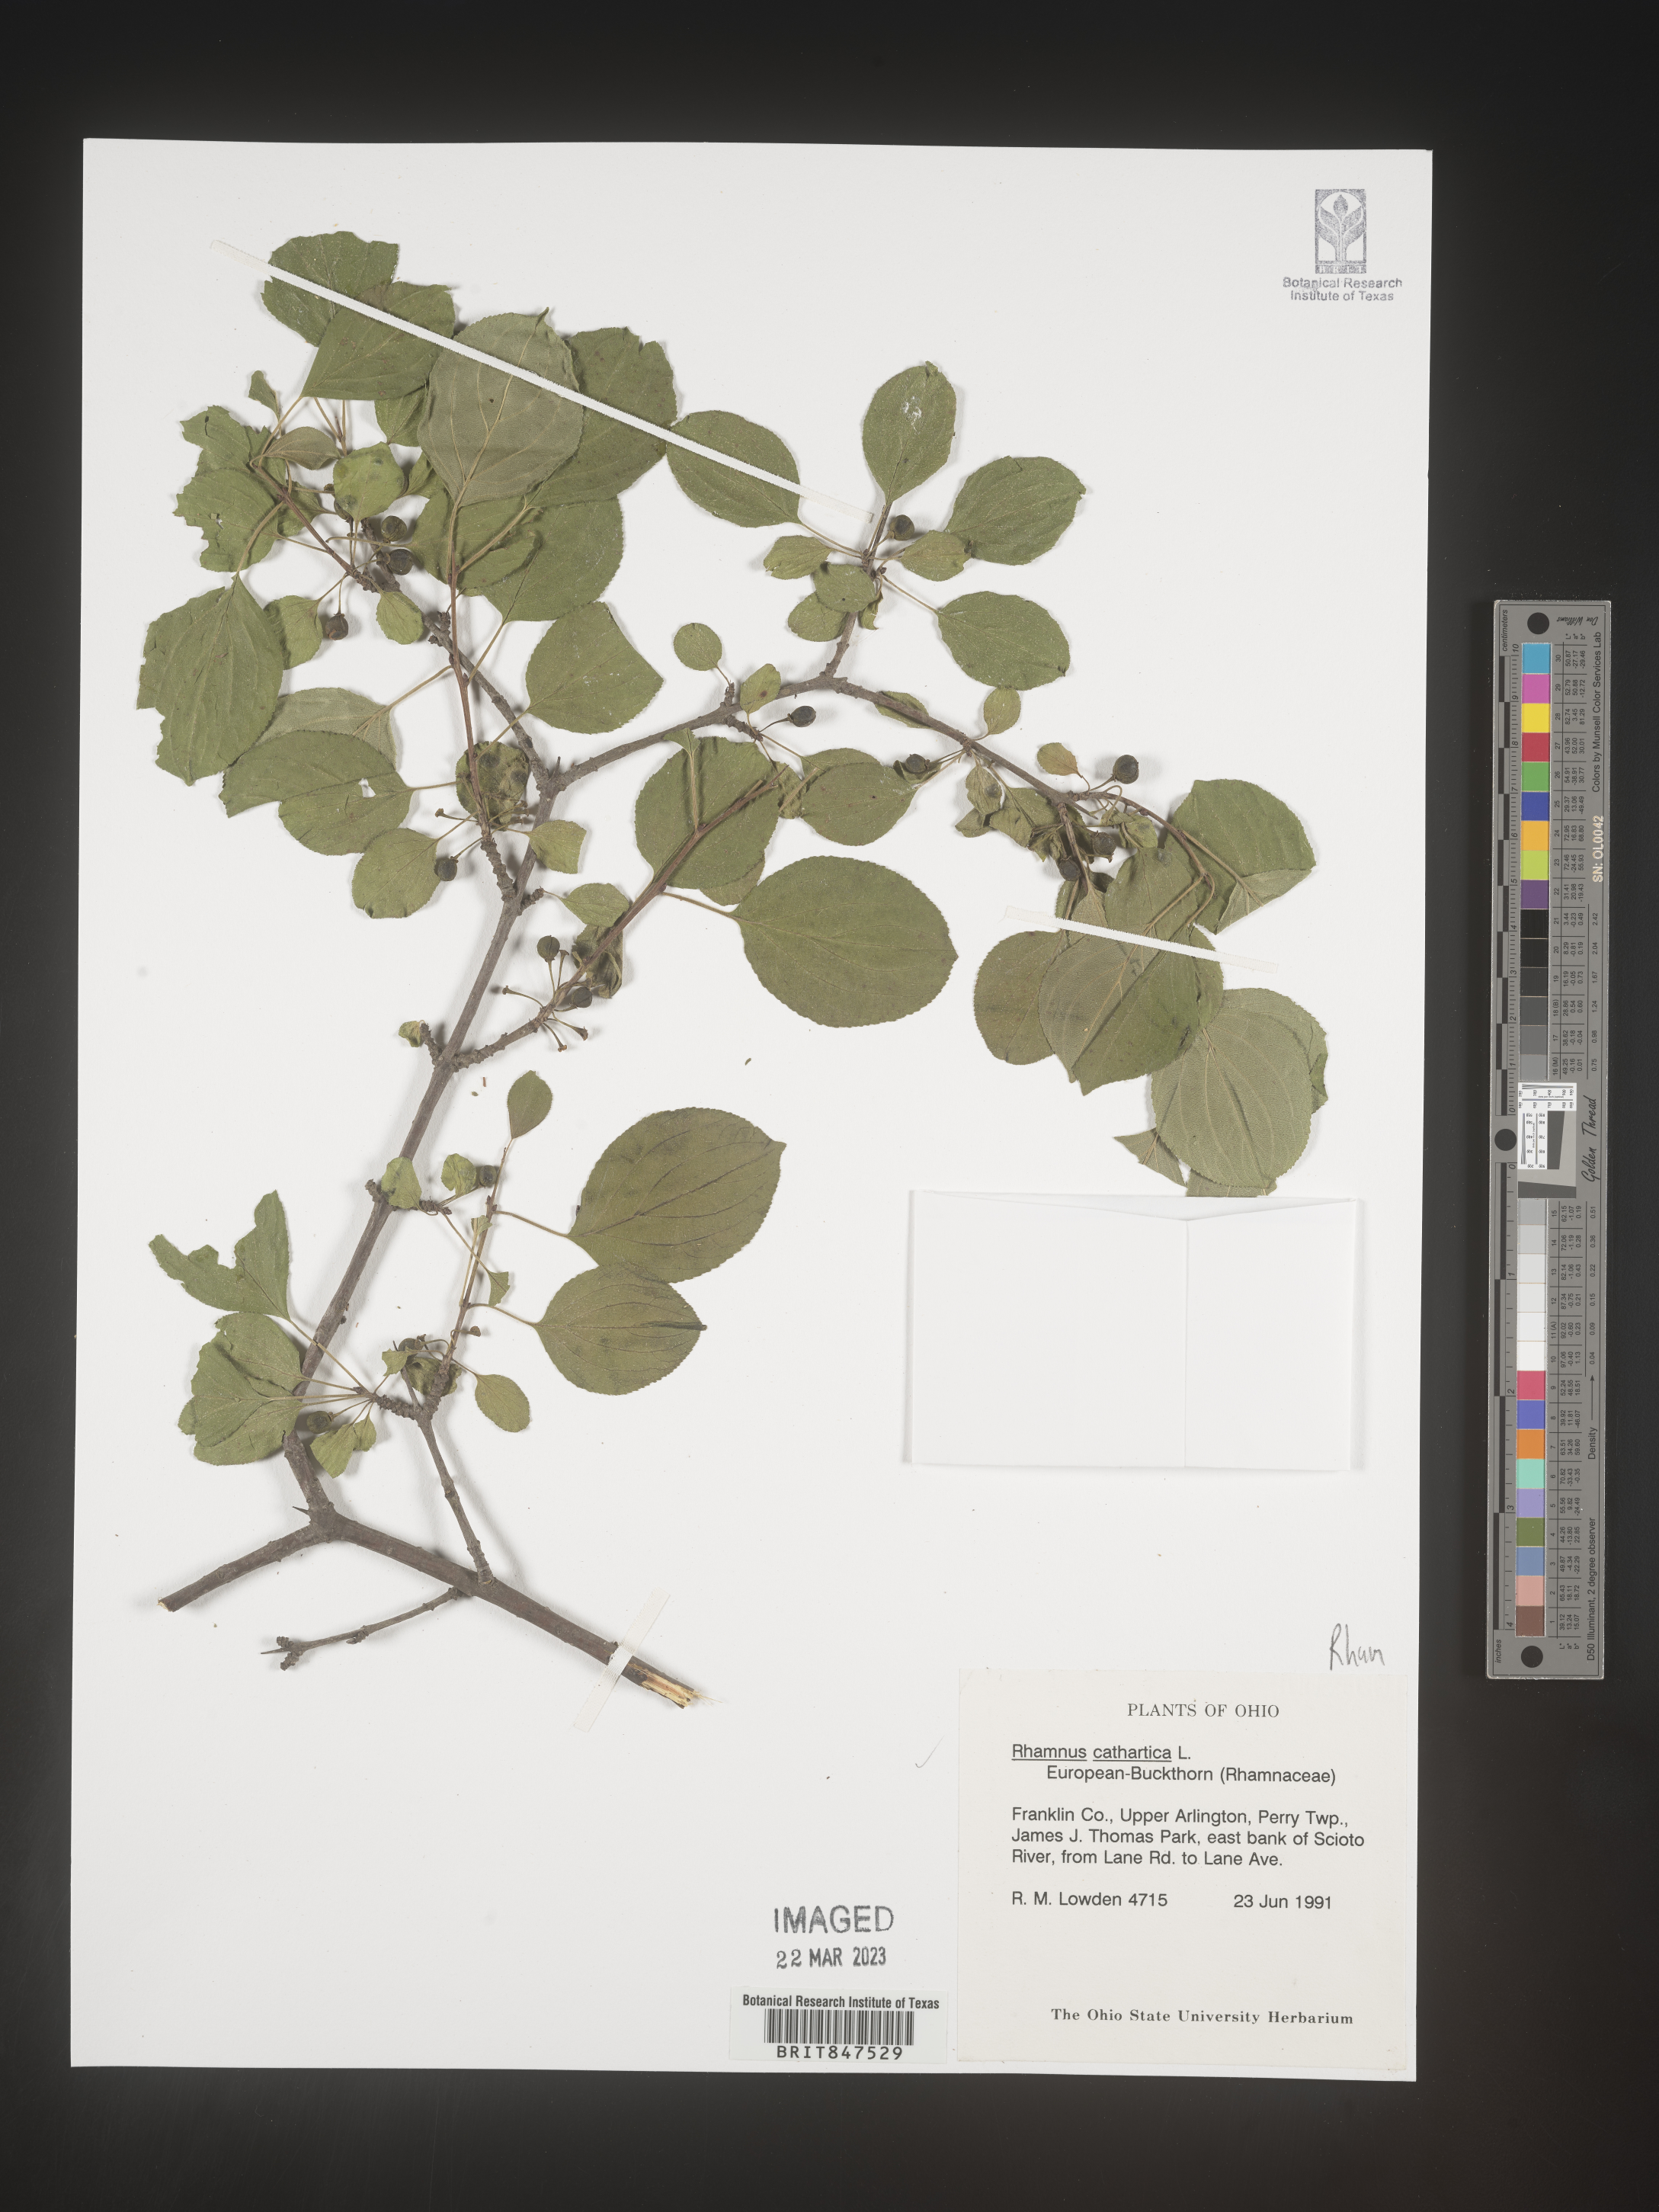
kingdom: Plantae
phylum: Tracheophyta
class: Magnoliopsida
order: Rosales
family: Rhamnaceae
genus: Rhamnus
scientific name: Rhamnus cathartica
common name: Common buckthorn
